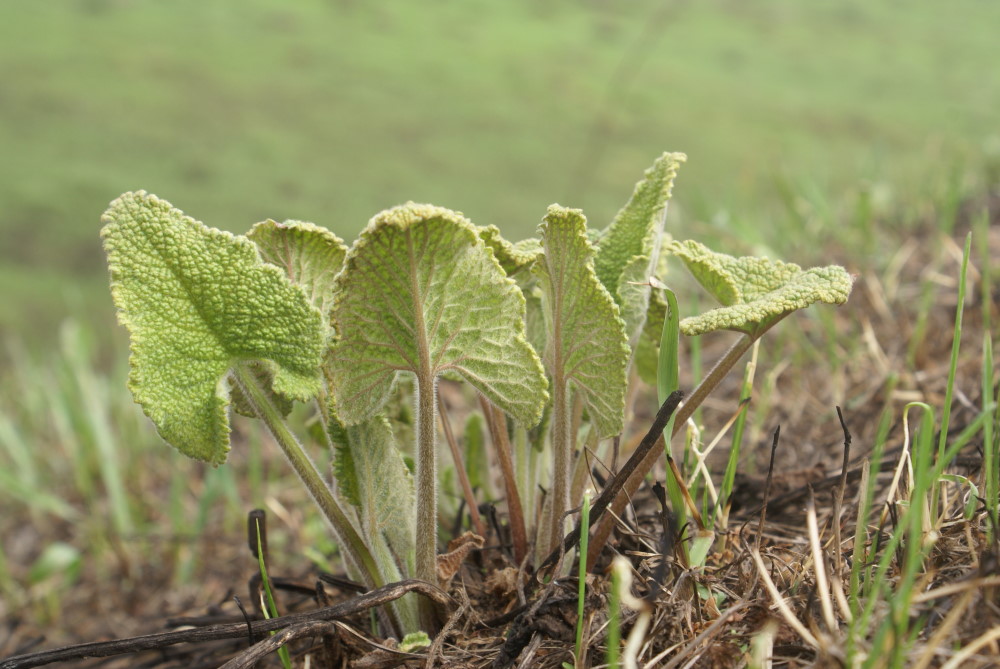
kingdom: Plantae
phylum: Tracheophyta
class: Magnoliopsida
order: Lamiales
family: Lamiaceae
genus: Betonica
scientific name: Betonica officinalis
